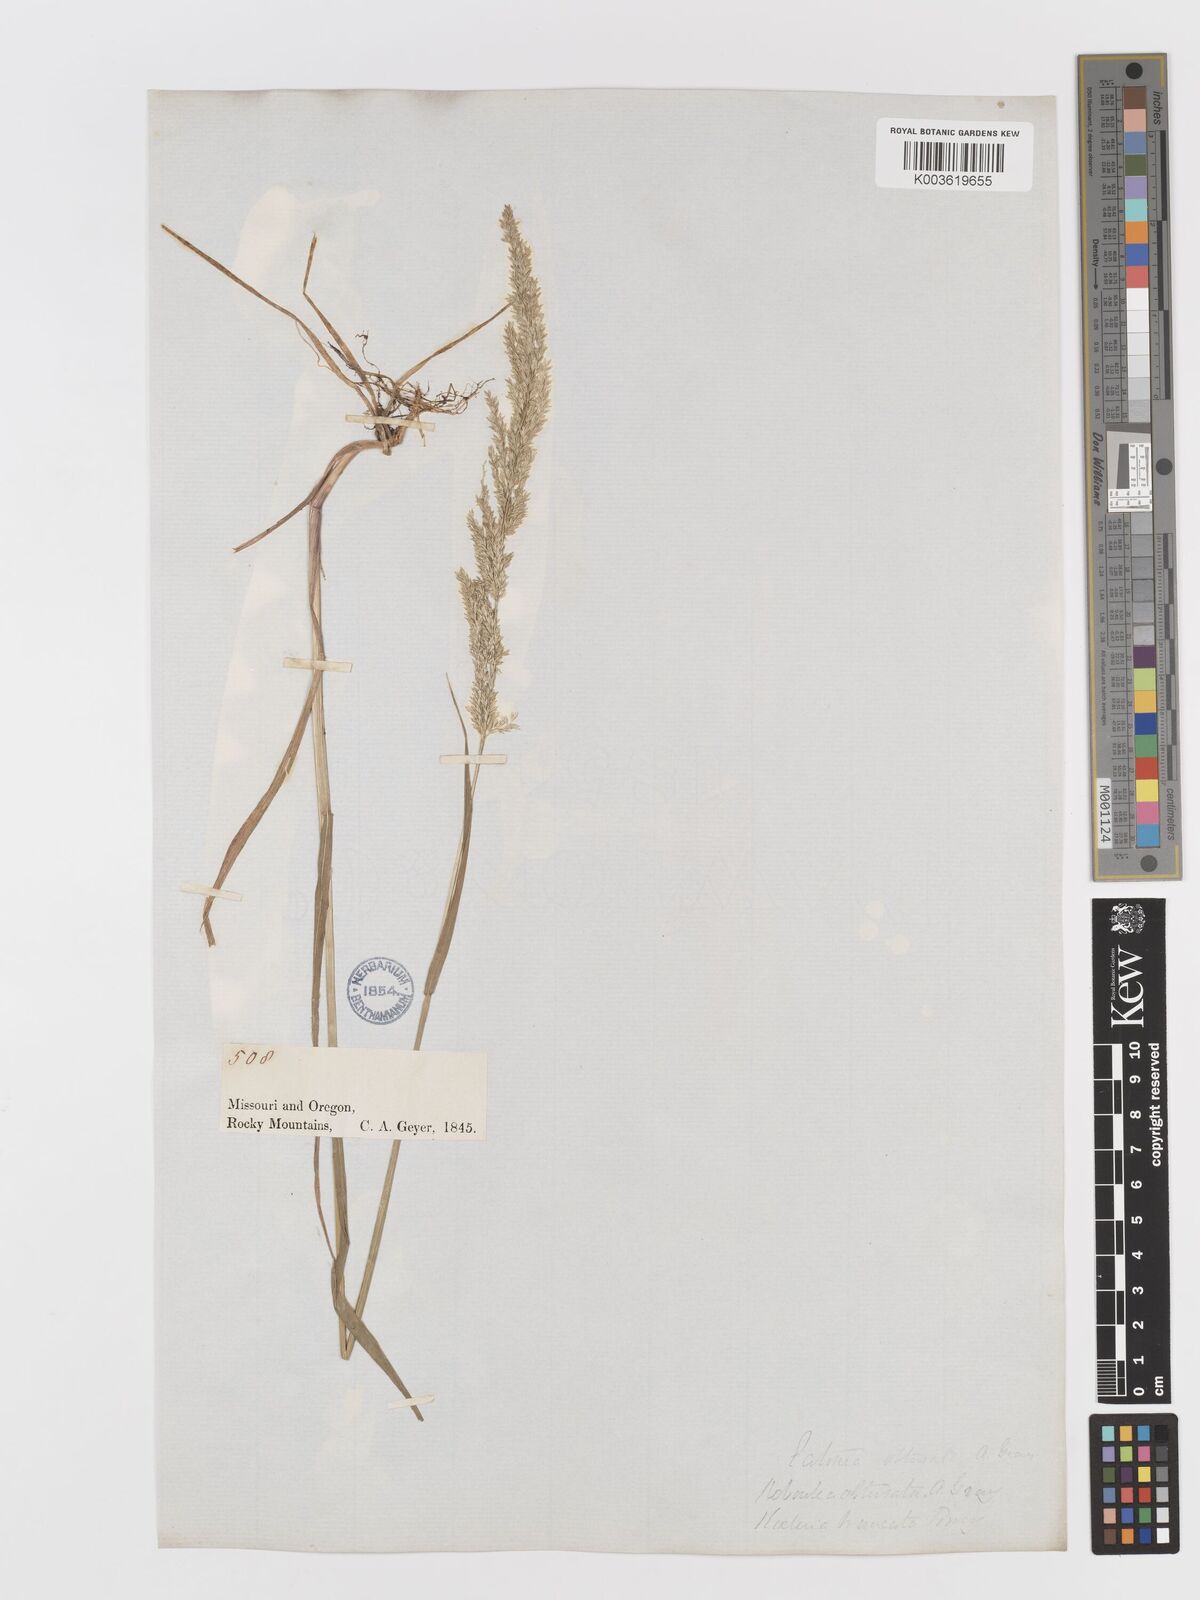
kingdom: Plantae
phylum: Tracheophyta
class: Liliopsida
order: Poales
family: Poaceae
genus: Sphenopholis
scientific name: Sphenopholis obtusata
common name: Prairie grass
